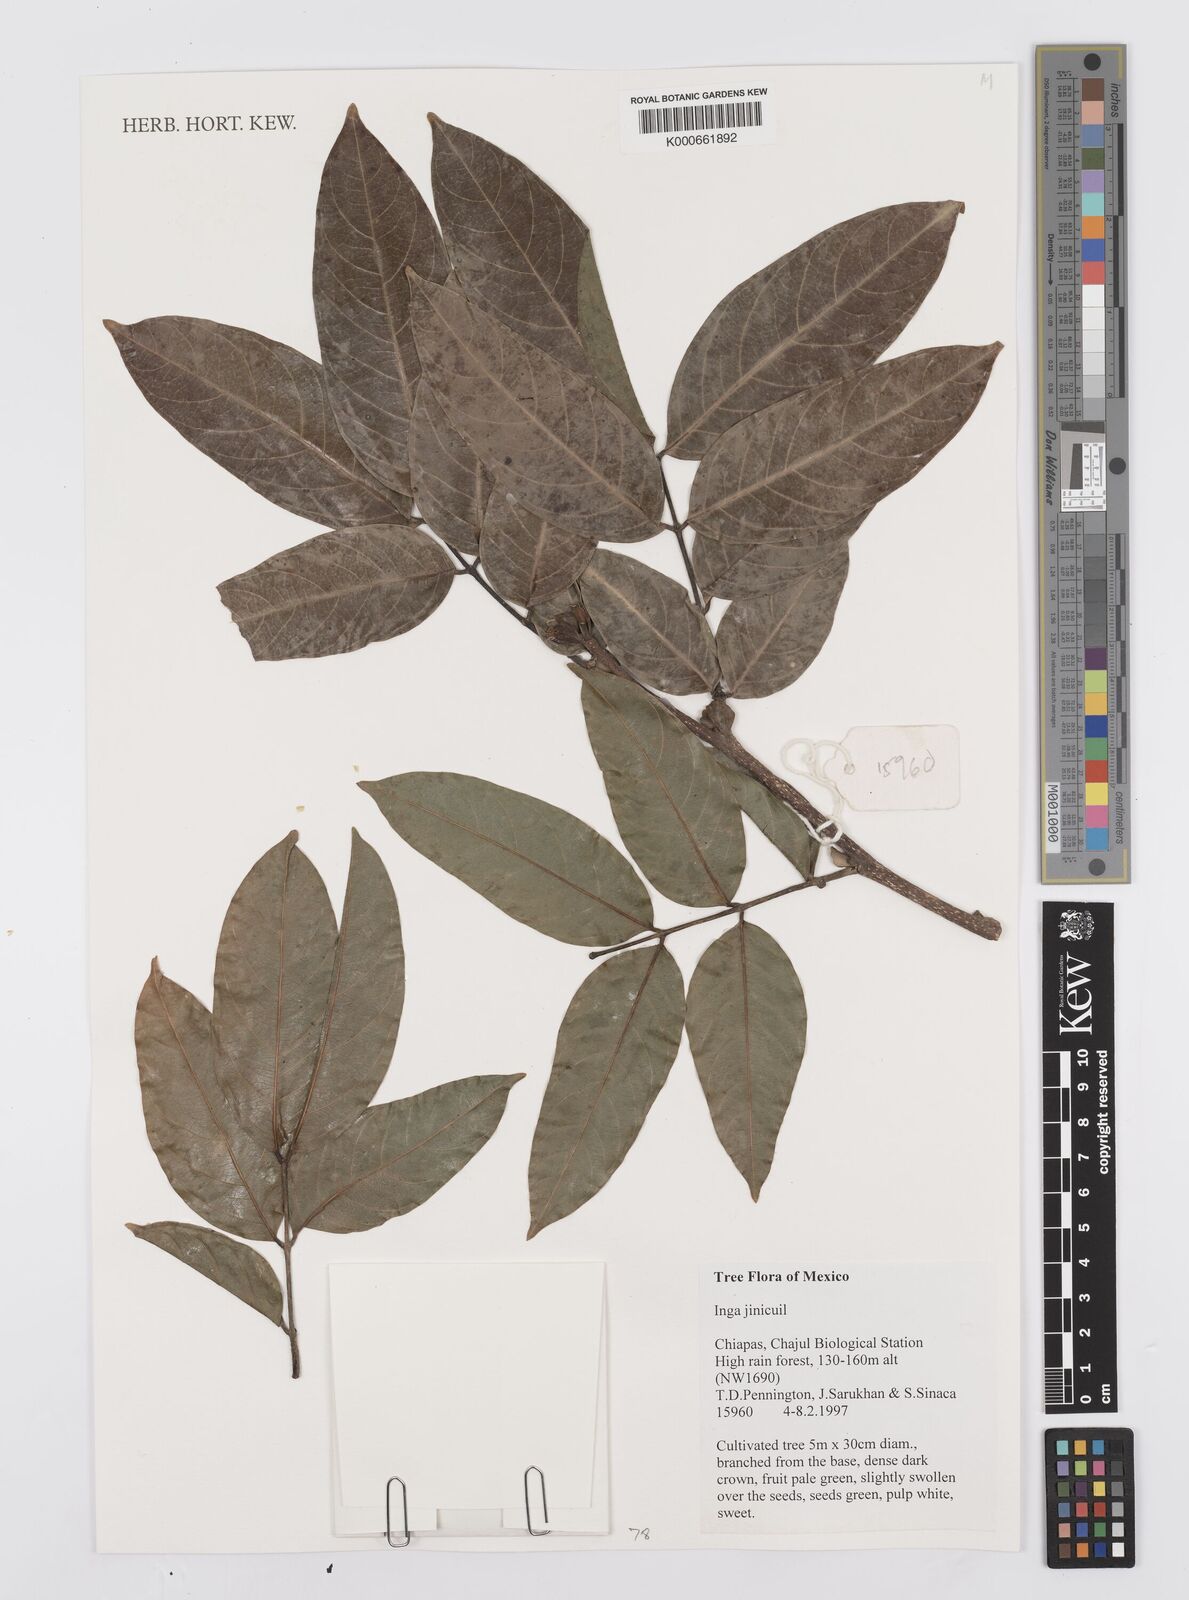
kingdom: Plantae
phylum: Tracheophyta
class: Magnoliopsida
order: Fabales
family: Fabaceae
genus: Inga
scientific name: Inga inicuil
